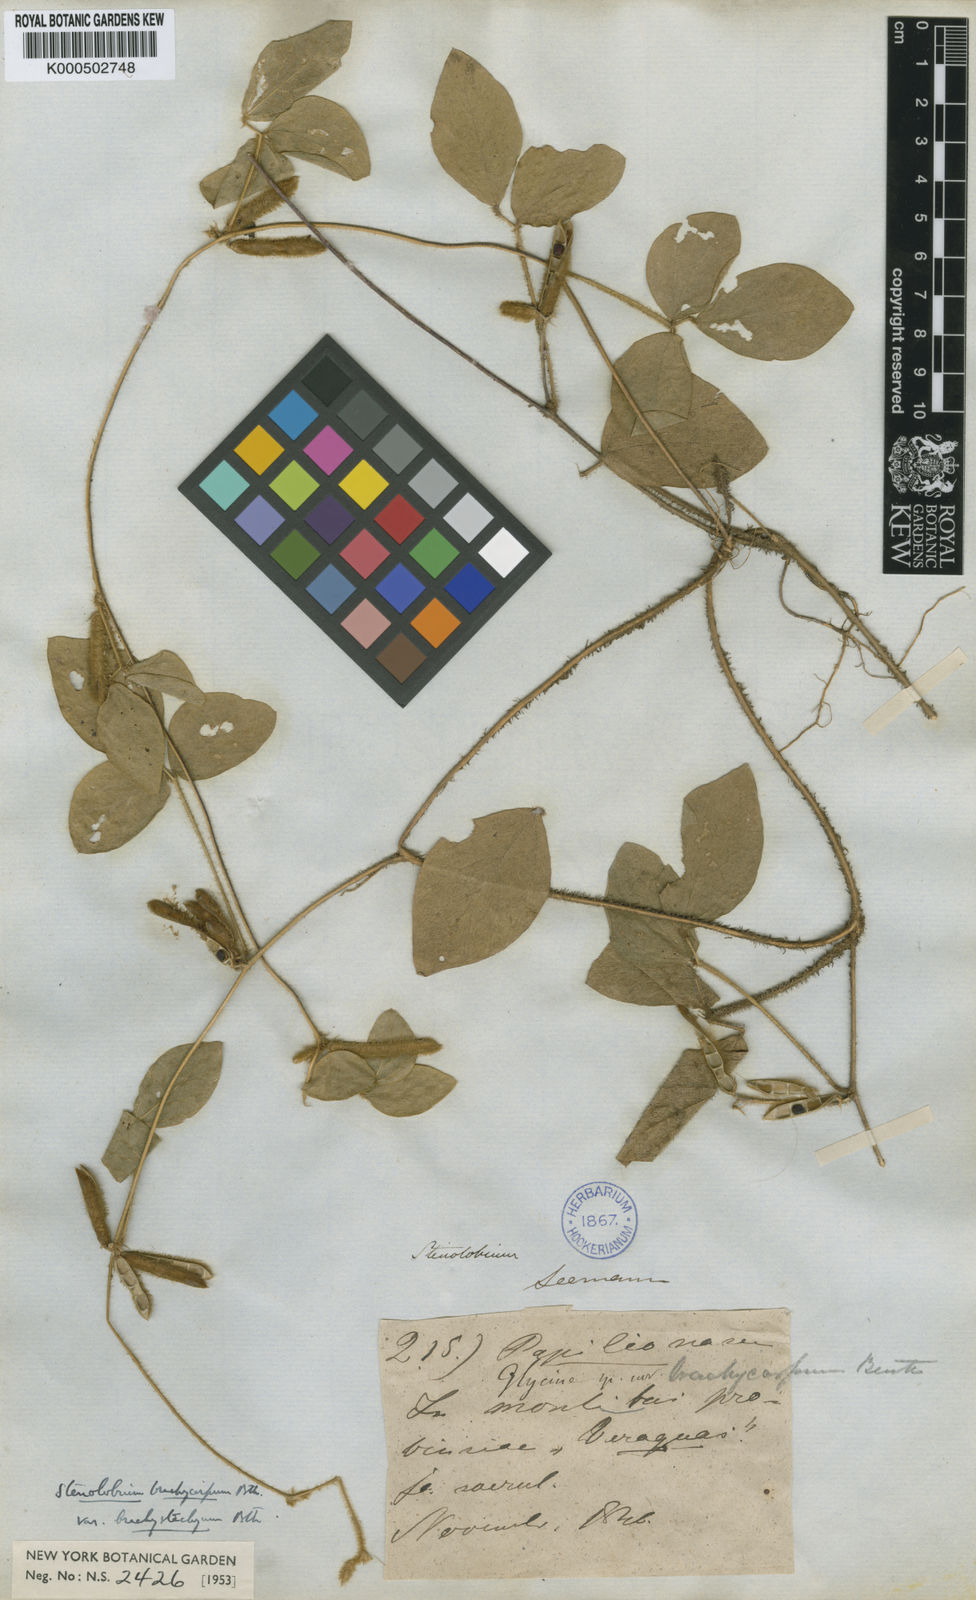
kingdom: Plantae
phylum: Tracheophyta
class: Magnoliopsida
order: Fabales
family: Fabaceae
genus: Calopogonium
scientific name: Calopogonium mucunoides
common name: Calopo
